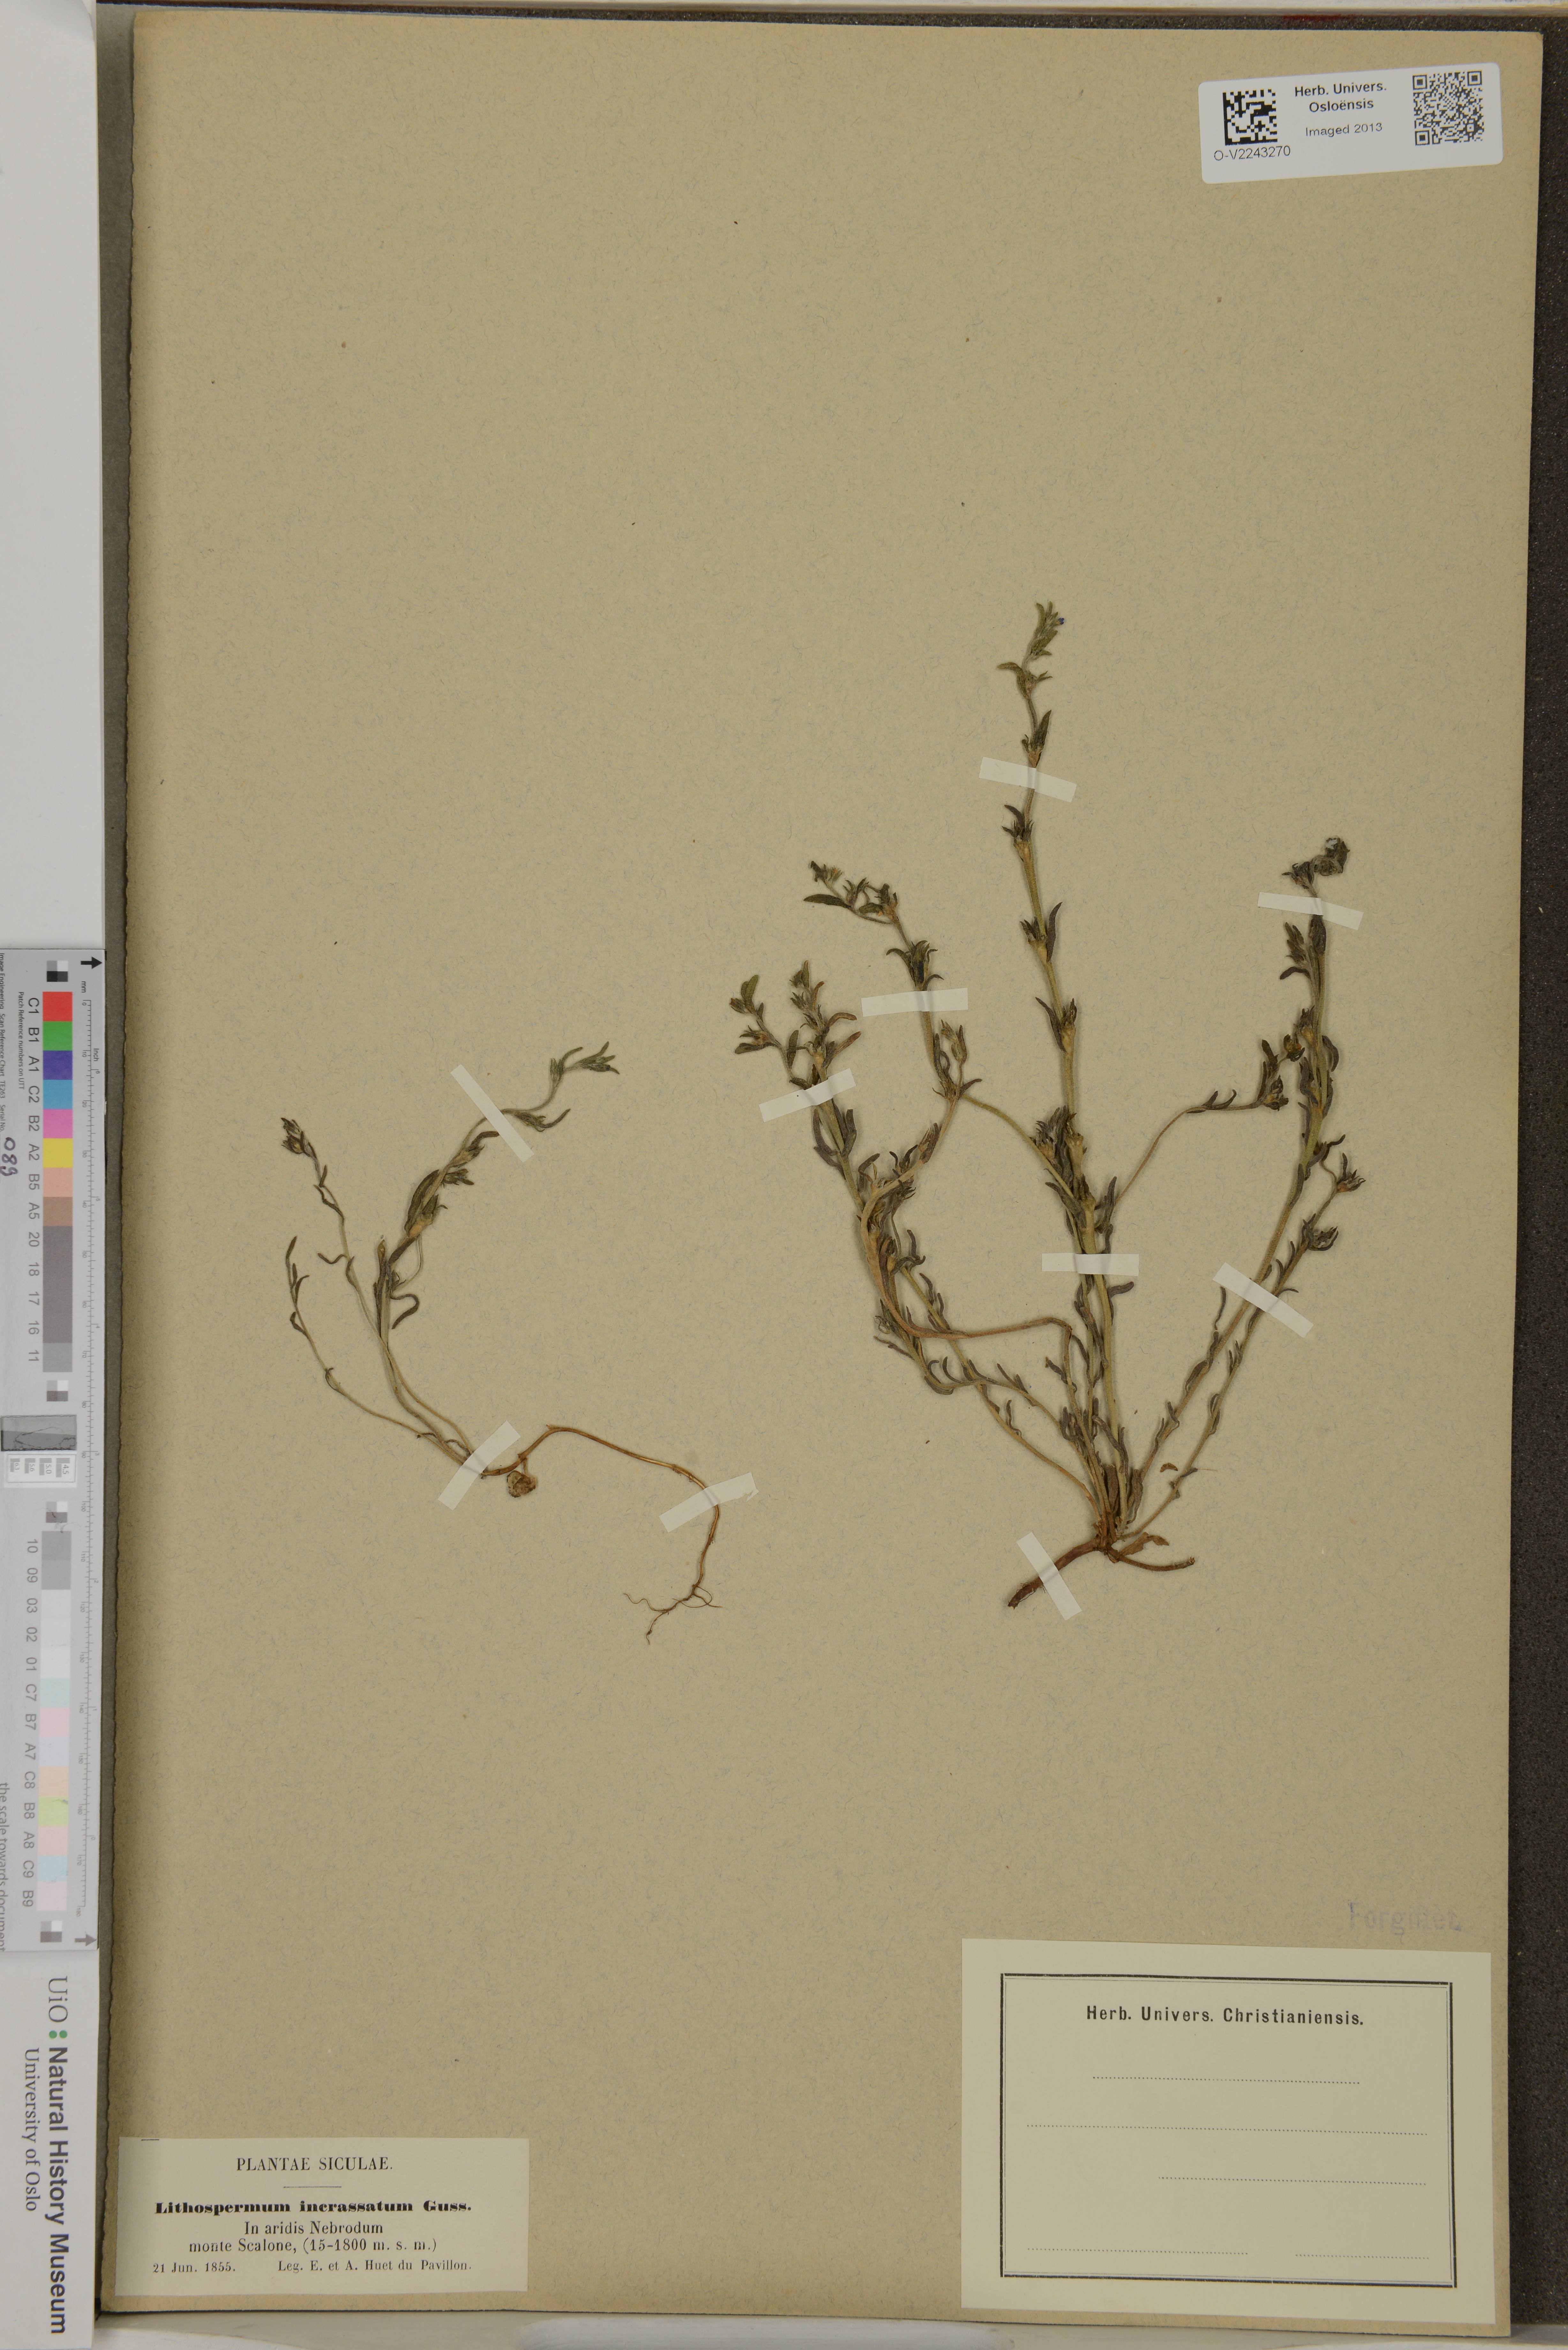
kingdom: Plantae
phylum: Tracheophyta
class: Magnoliopsida
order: Boraginales
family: Boraginaceae
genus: Buglossoides
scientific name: Buglossoides incrassata
